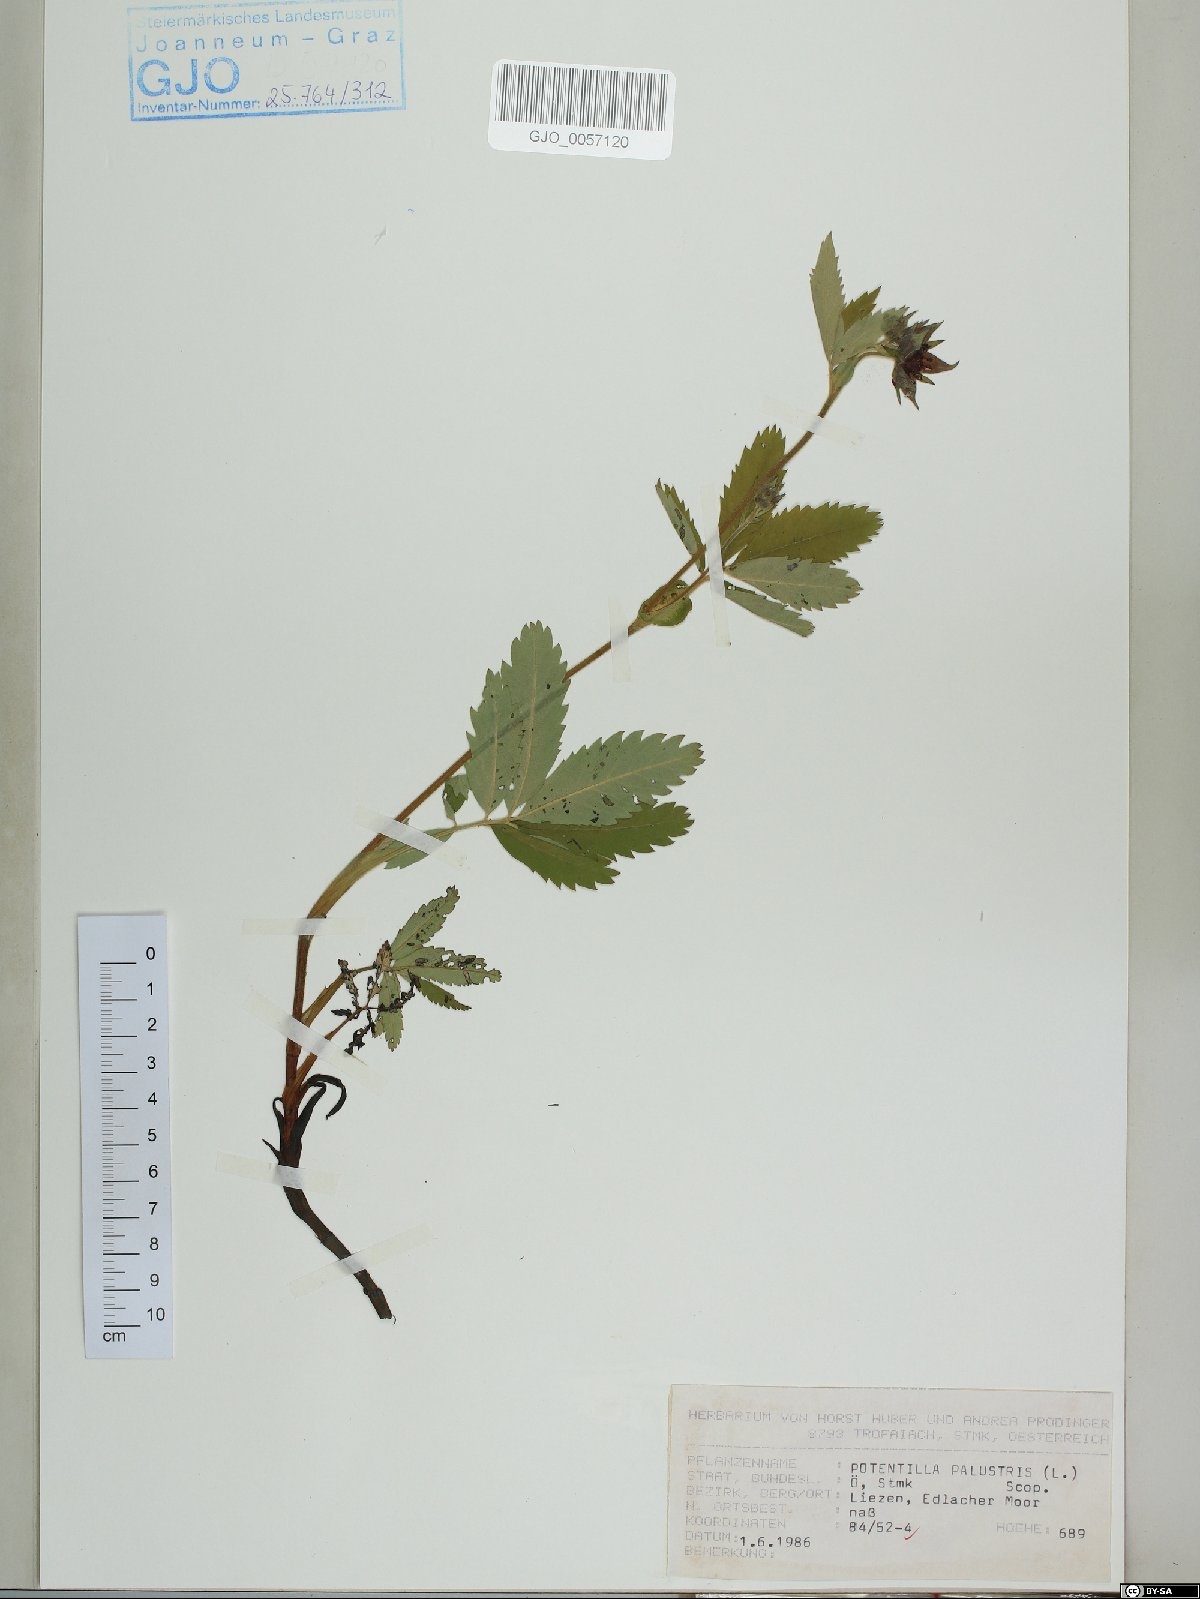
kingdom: Plantae
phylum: Tracheophyta
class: Magnoliopsida
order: Rosales
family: Rosaceae
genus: Comarum
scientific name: Comarum palustre
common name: Marsh cinquefoil
